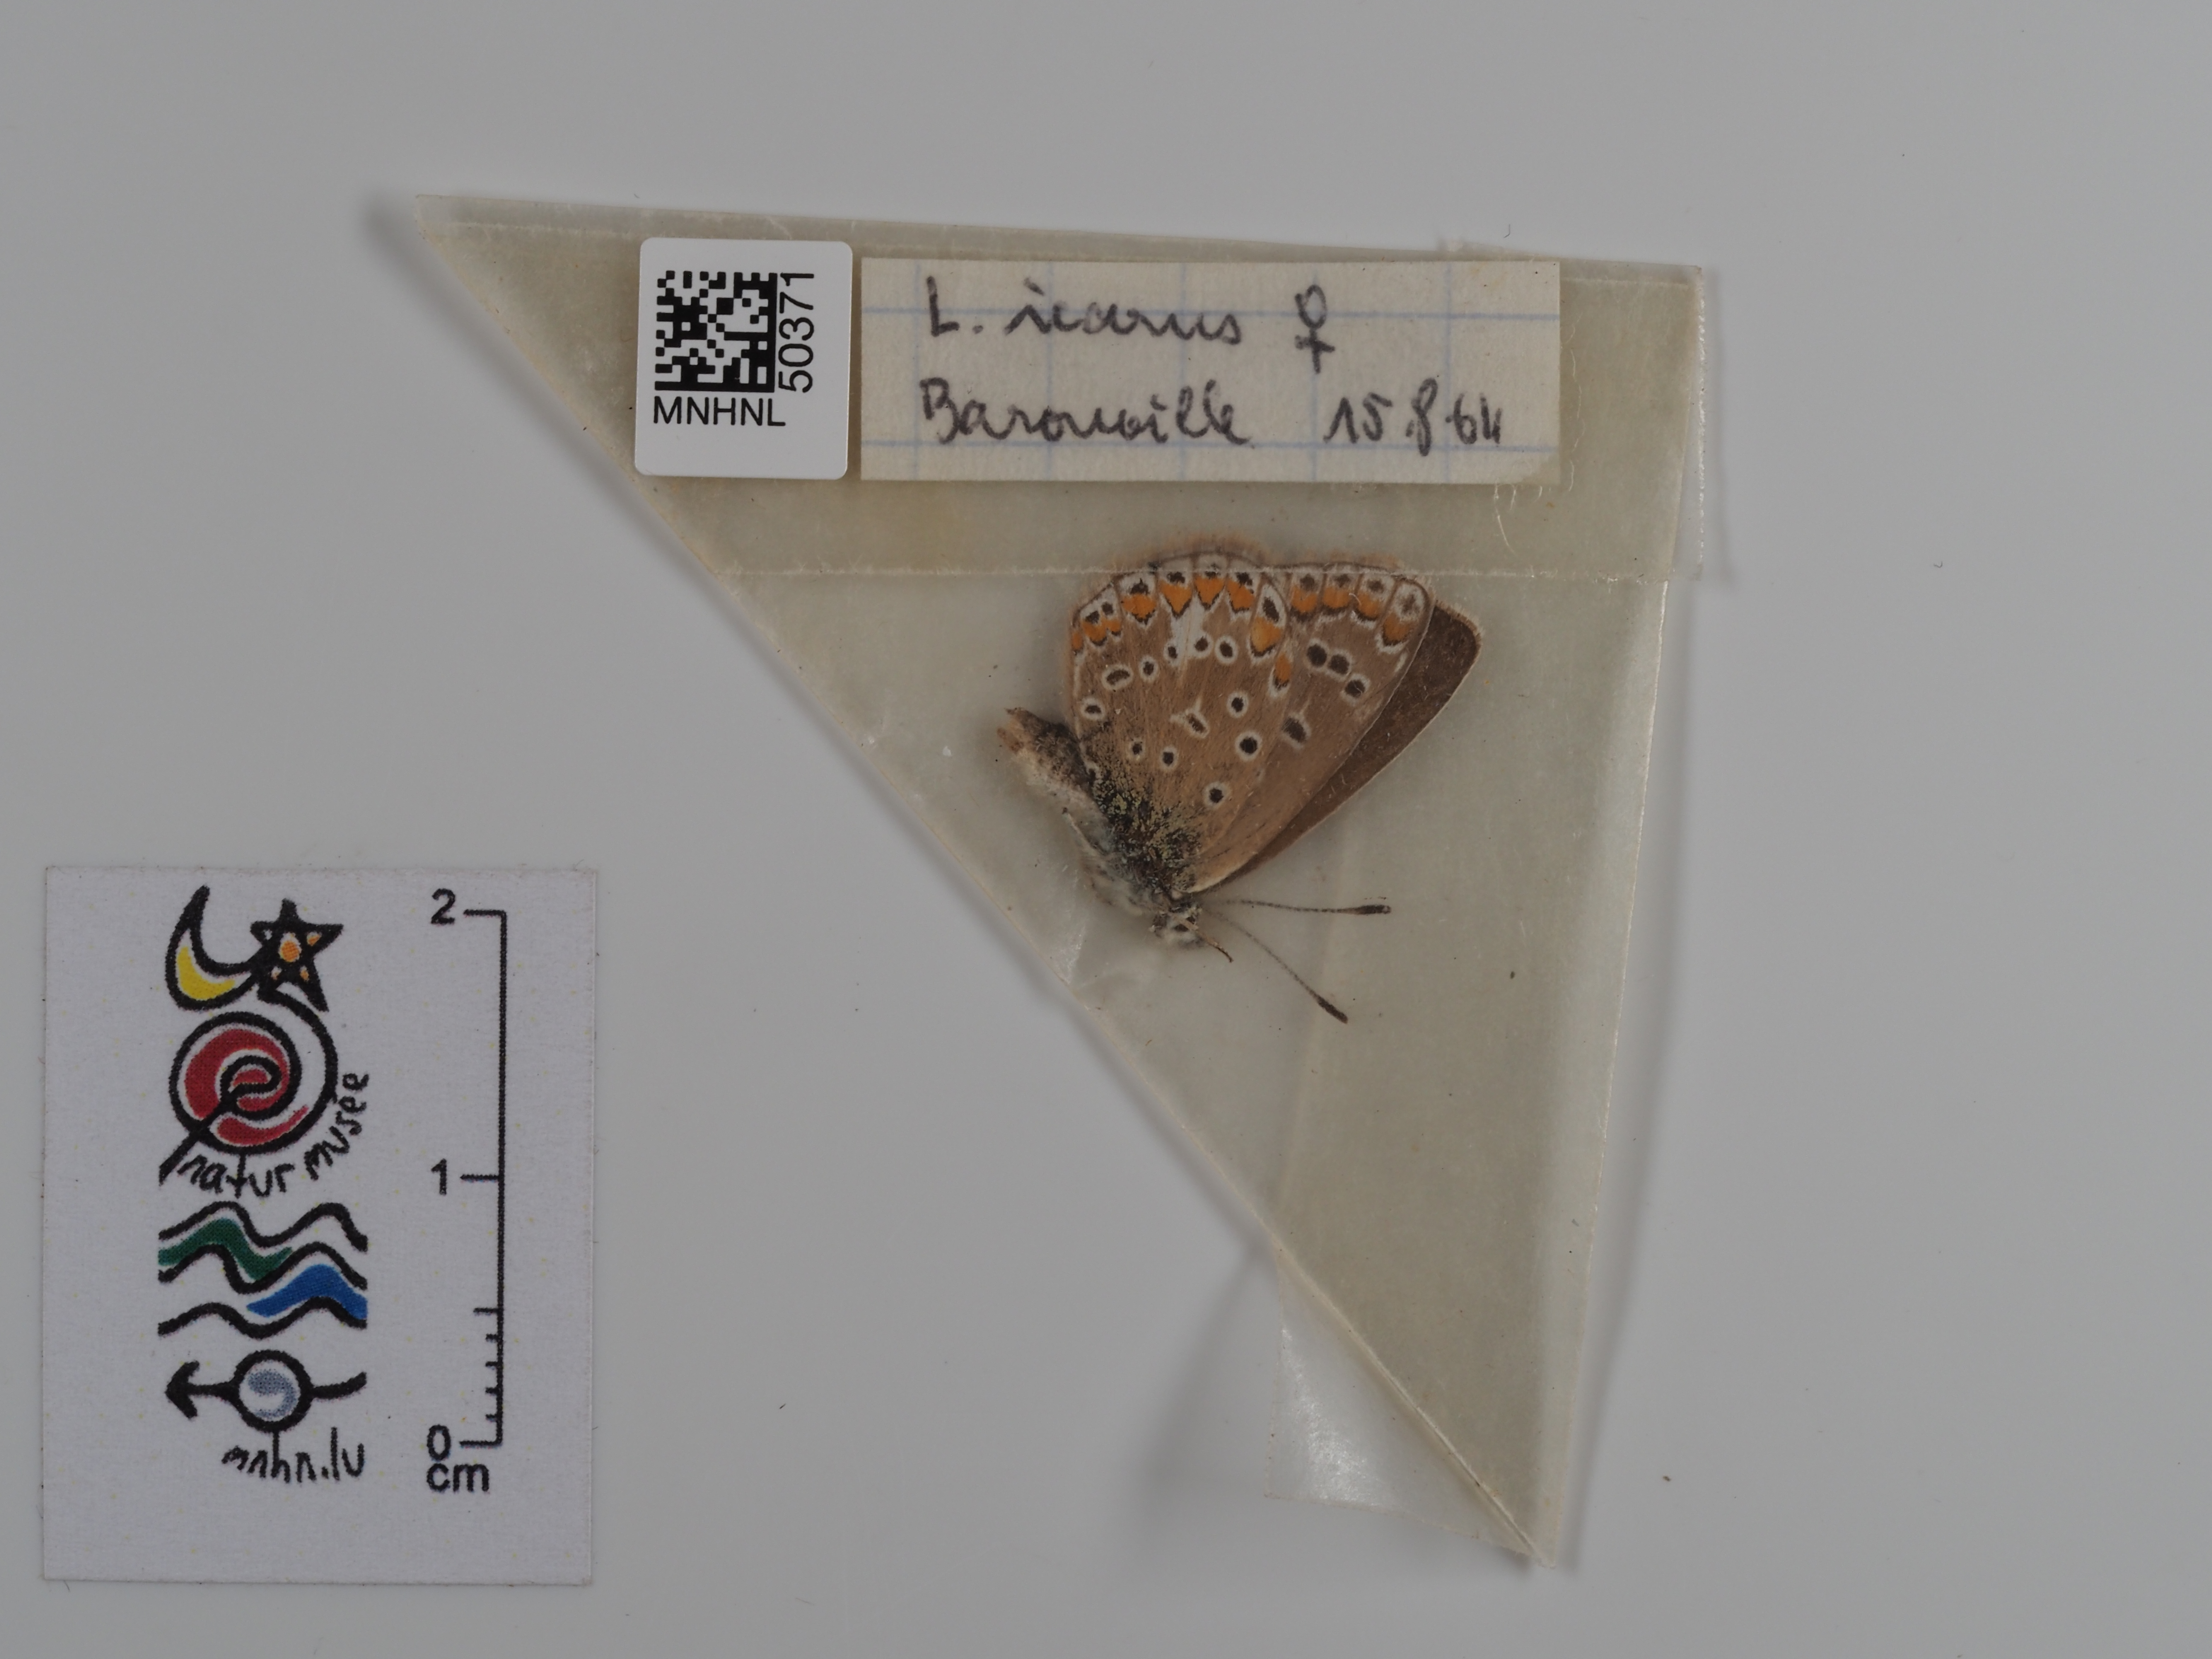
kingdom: Animalia
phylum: Arthropoda
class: Insecta
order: Lepidoptera
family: Lycaenidae
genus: Polyommatus
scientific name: Polyommatus icarus
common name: Common blue
